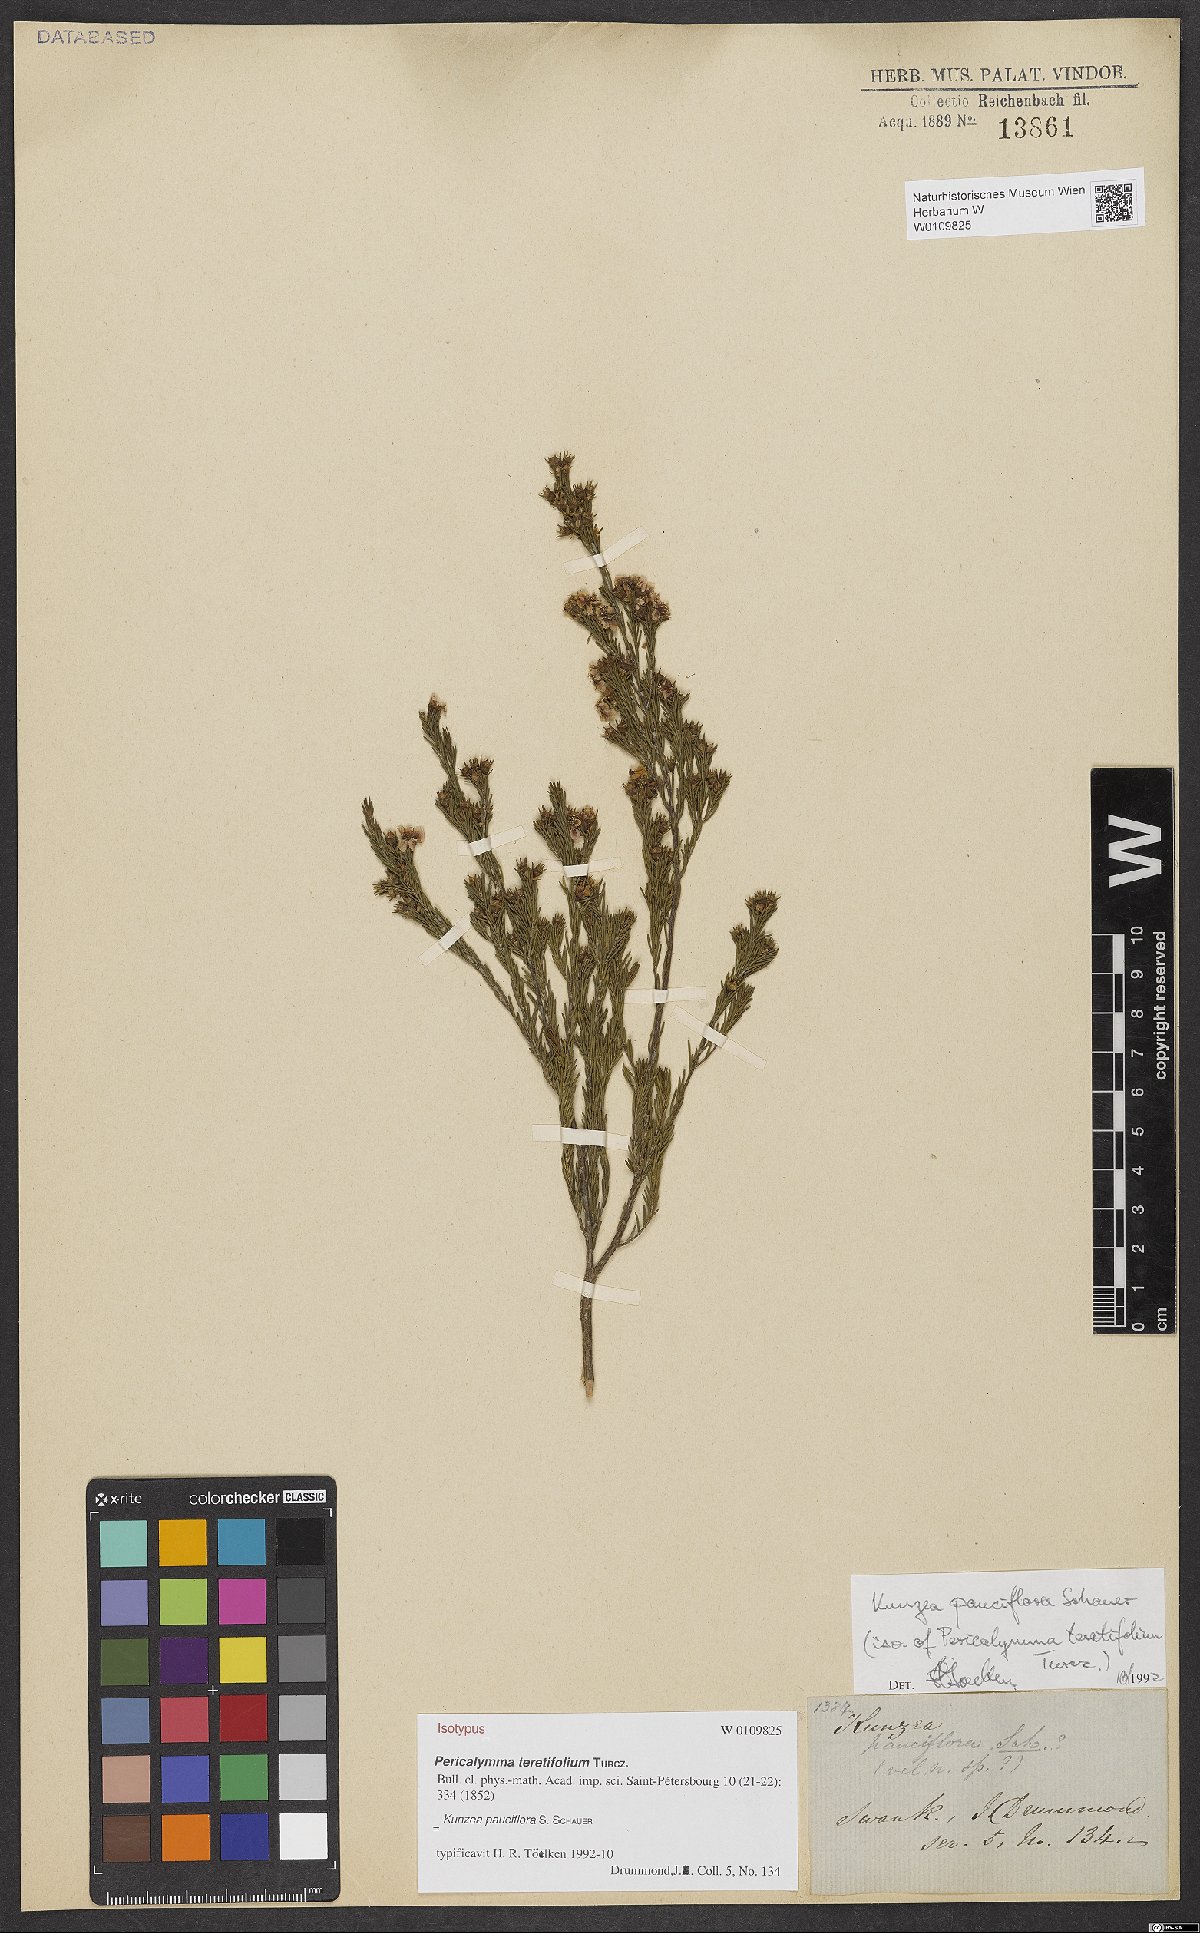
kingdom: Plantae
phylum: Tracheophyta
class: Magnoliopsida
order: Myrtales
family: Myrtaceae
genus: Kunzea
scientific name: Kunzea pauciflora
